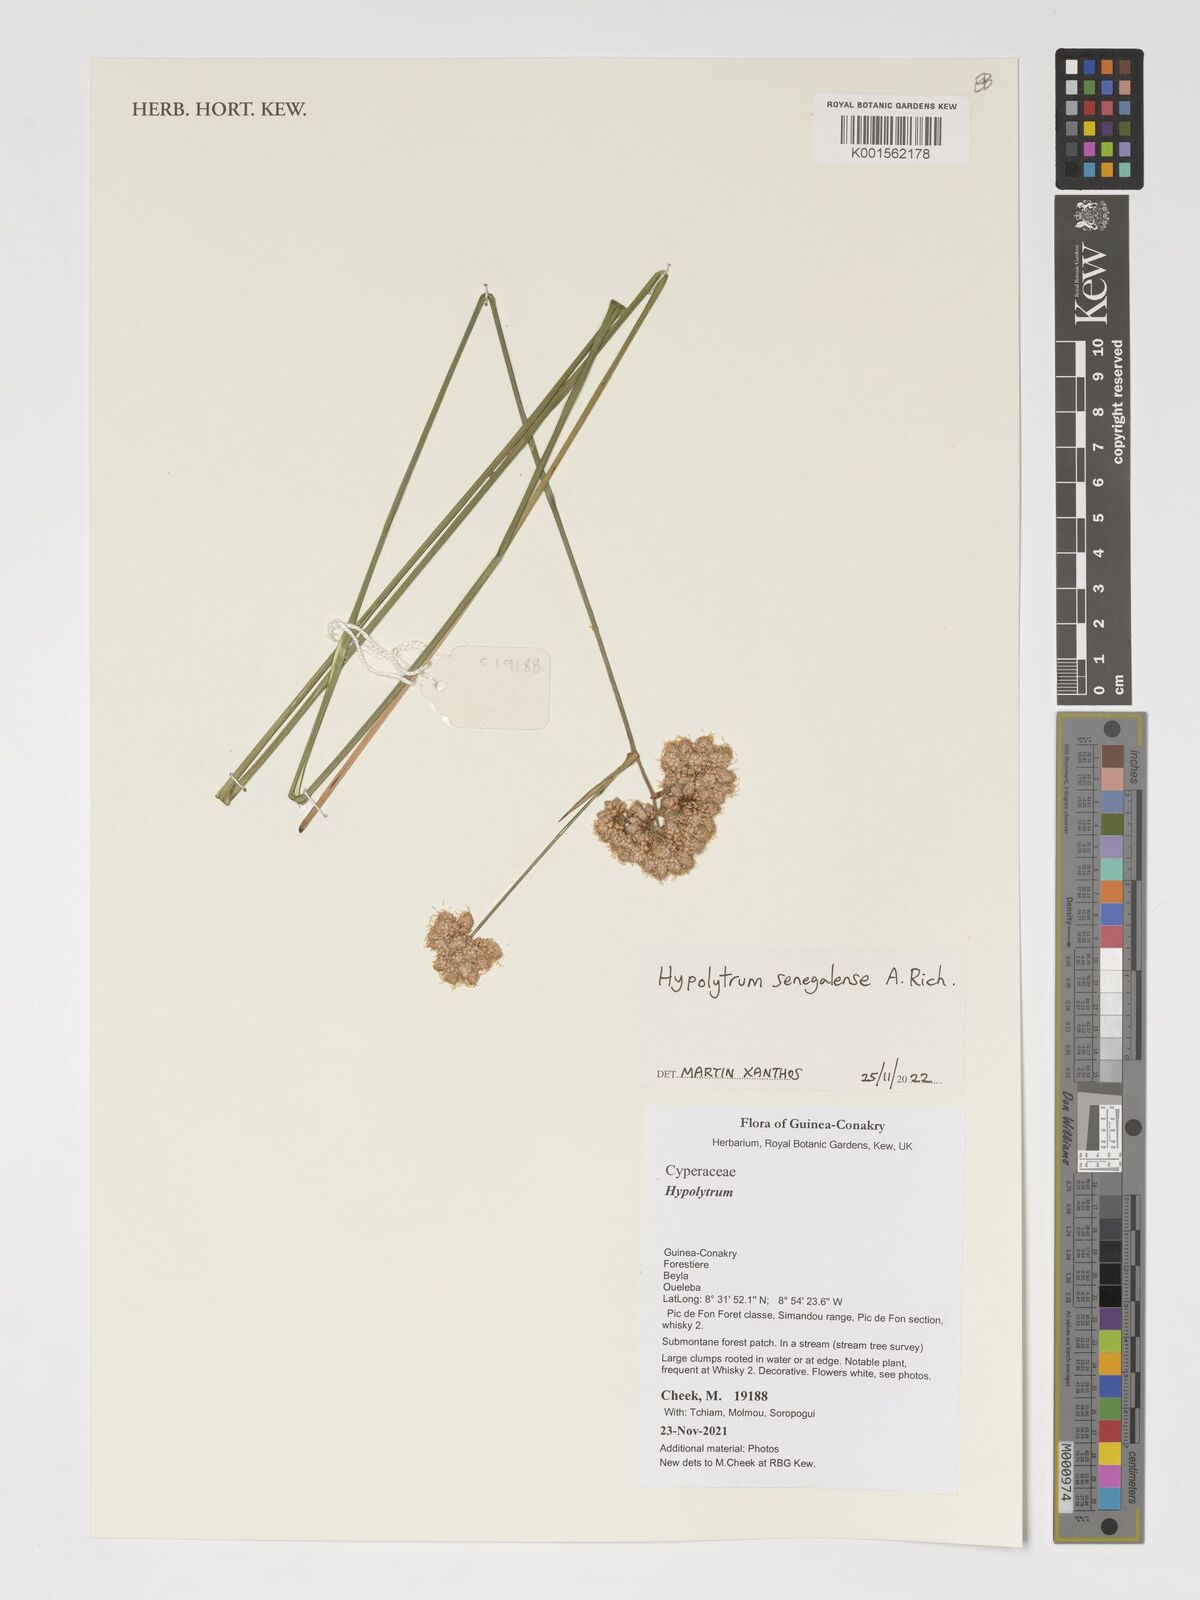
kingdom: Plantae
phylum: Tracheophyta
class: Liliopsida
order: Poales
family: Cyperaceae
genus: Hypolytrum
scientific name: Hypolytrum senegalense
